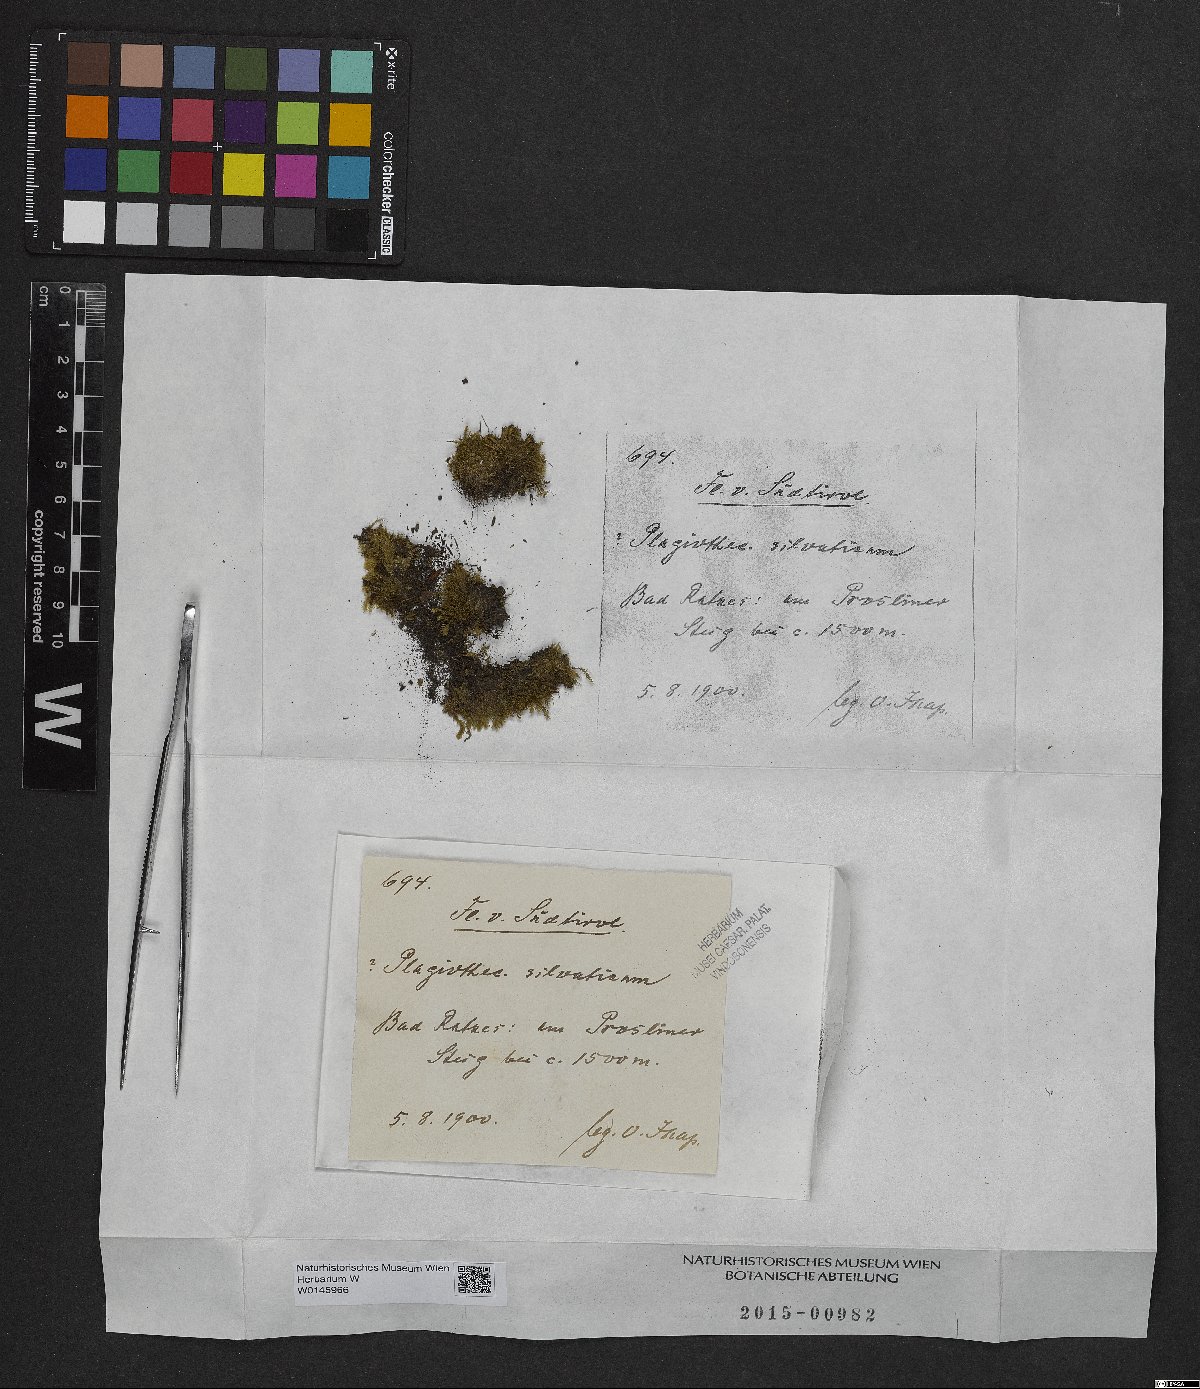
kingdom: Plantae
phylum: Bryophyta
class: Bryopsida
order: Hypnales
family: Plagiotheciaceae
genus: Plagiothecium
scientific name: Plagiothecium denticulatum
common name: Dented silk moss
